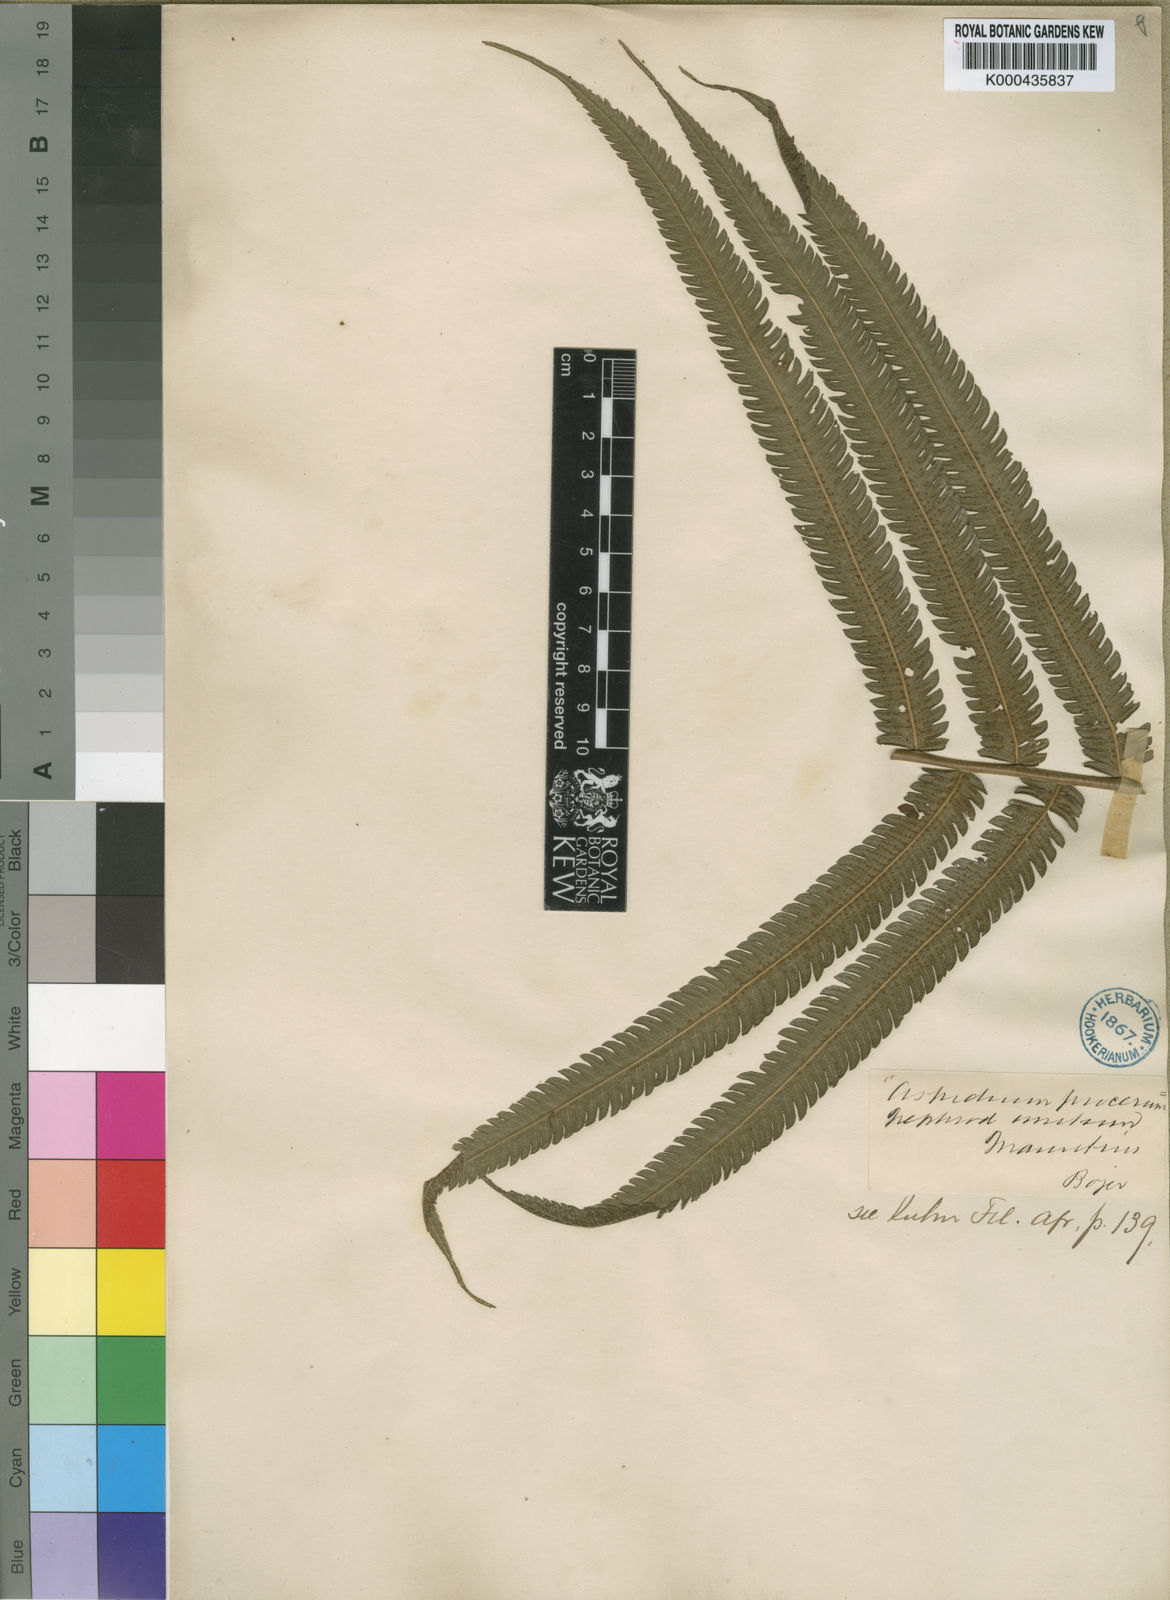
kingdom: Plantae
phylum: Tracheophyta
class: Polypodiopsida
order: Polypodiales
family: Thelypteridaceae
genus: Sphaerostephanos
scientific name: Sphaerostephanos elatus
